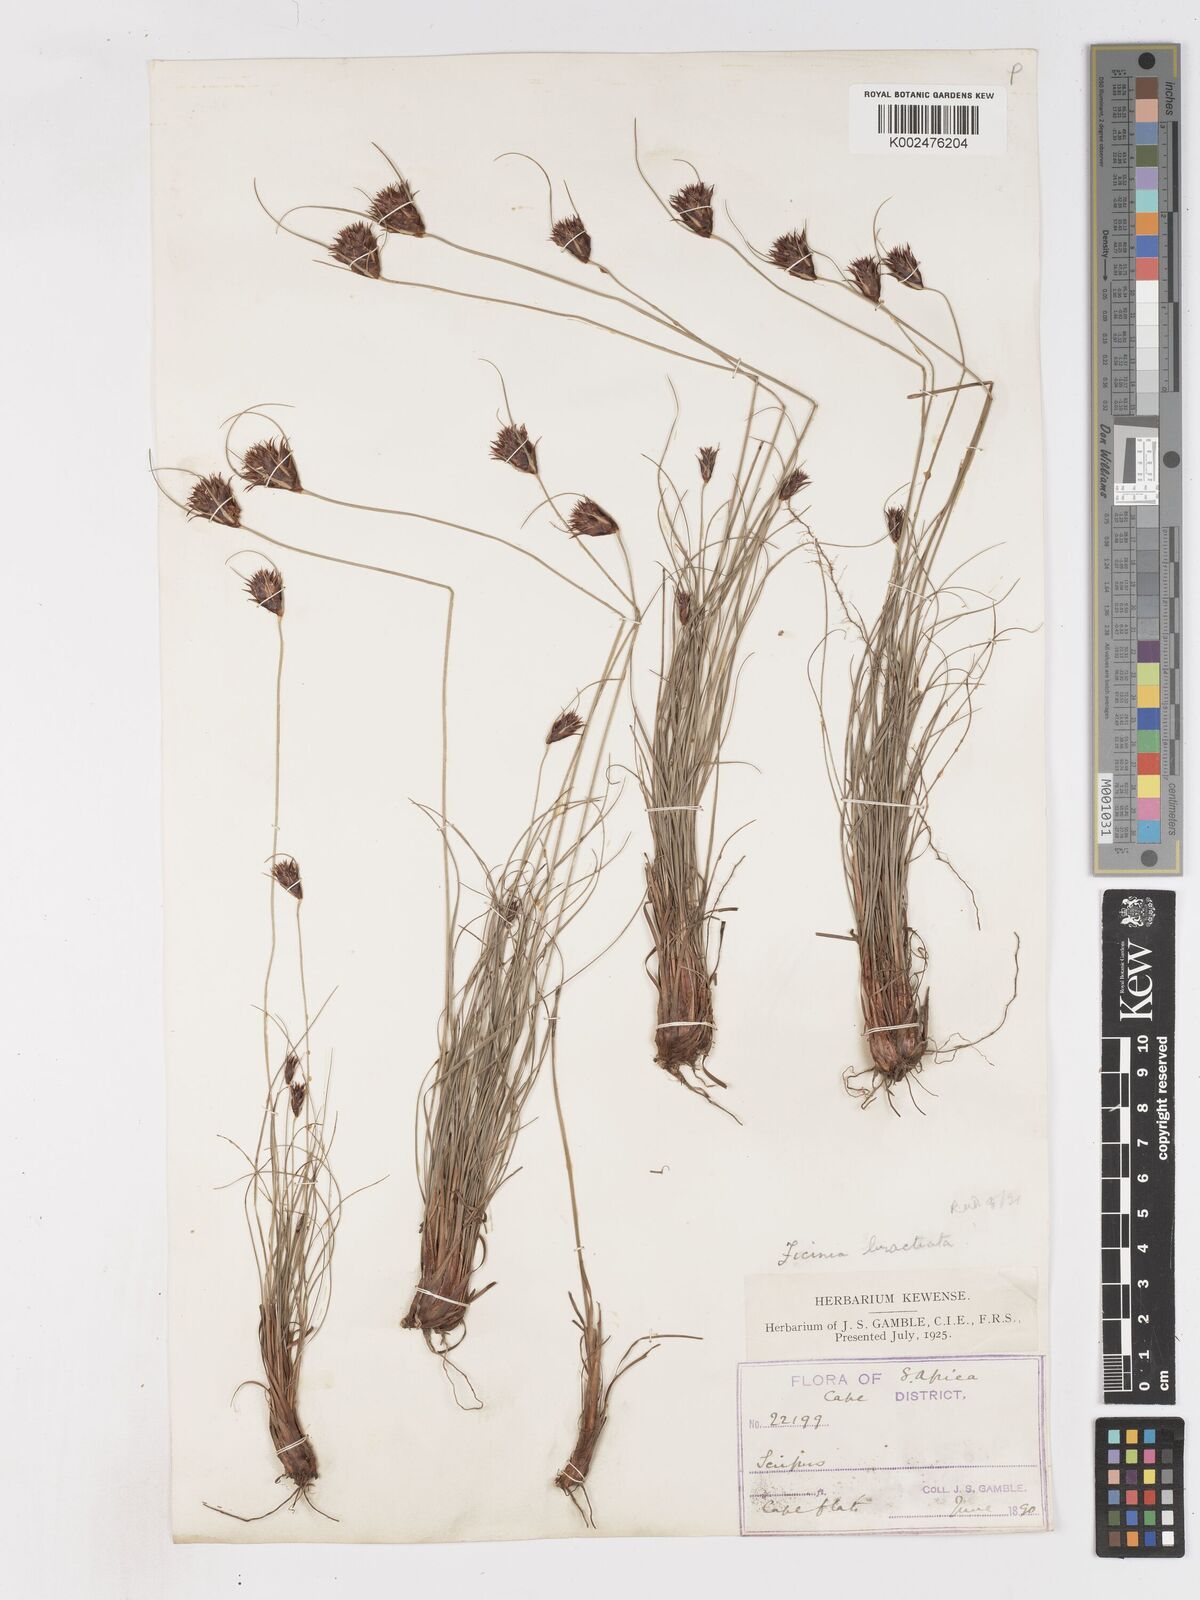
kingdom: Plantae
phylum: Tracheophyta
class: Liliopsida
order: Poales
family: Cyperaceae
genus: Ficinia
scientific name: Ficinia nigrescens
